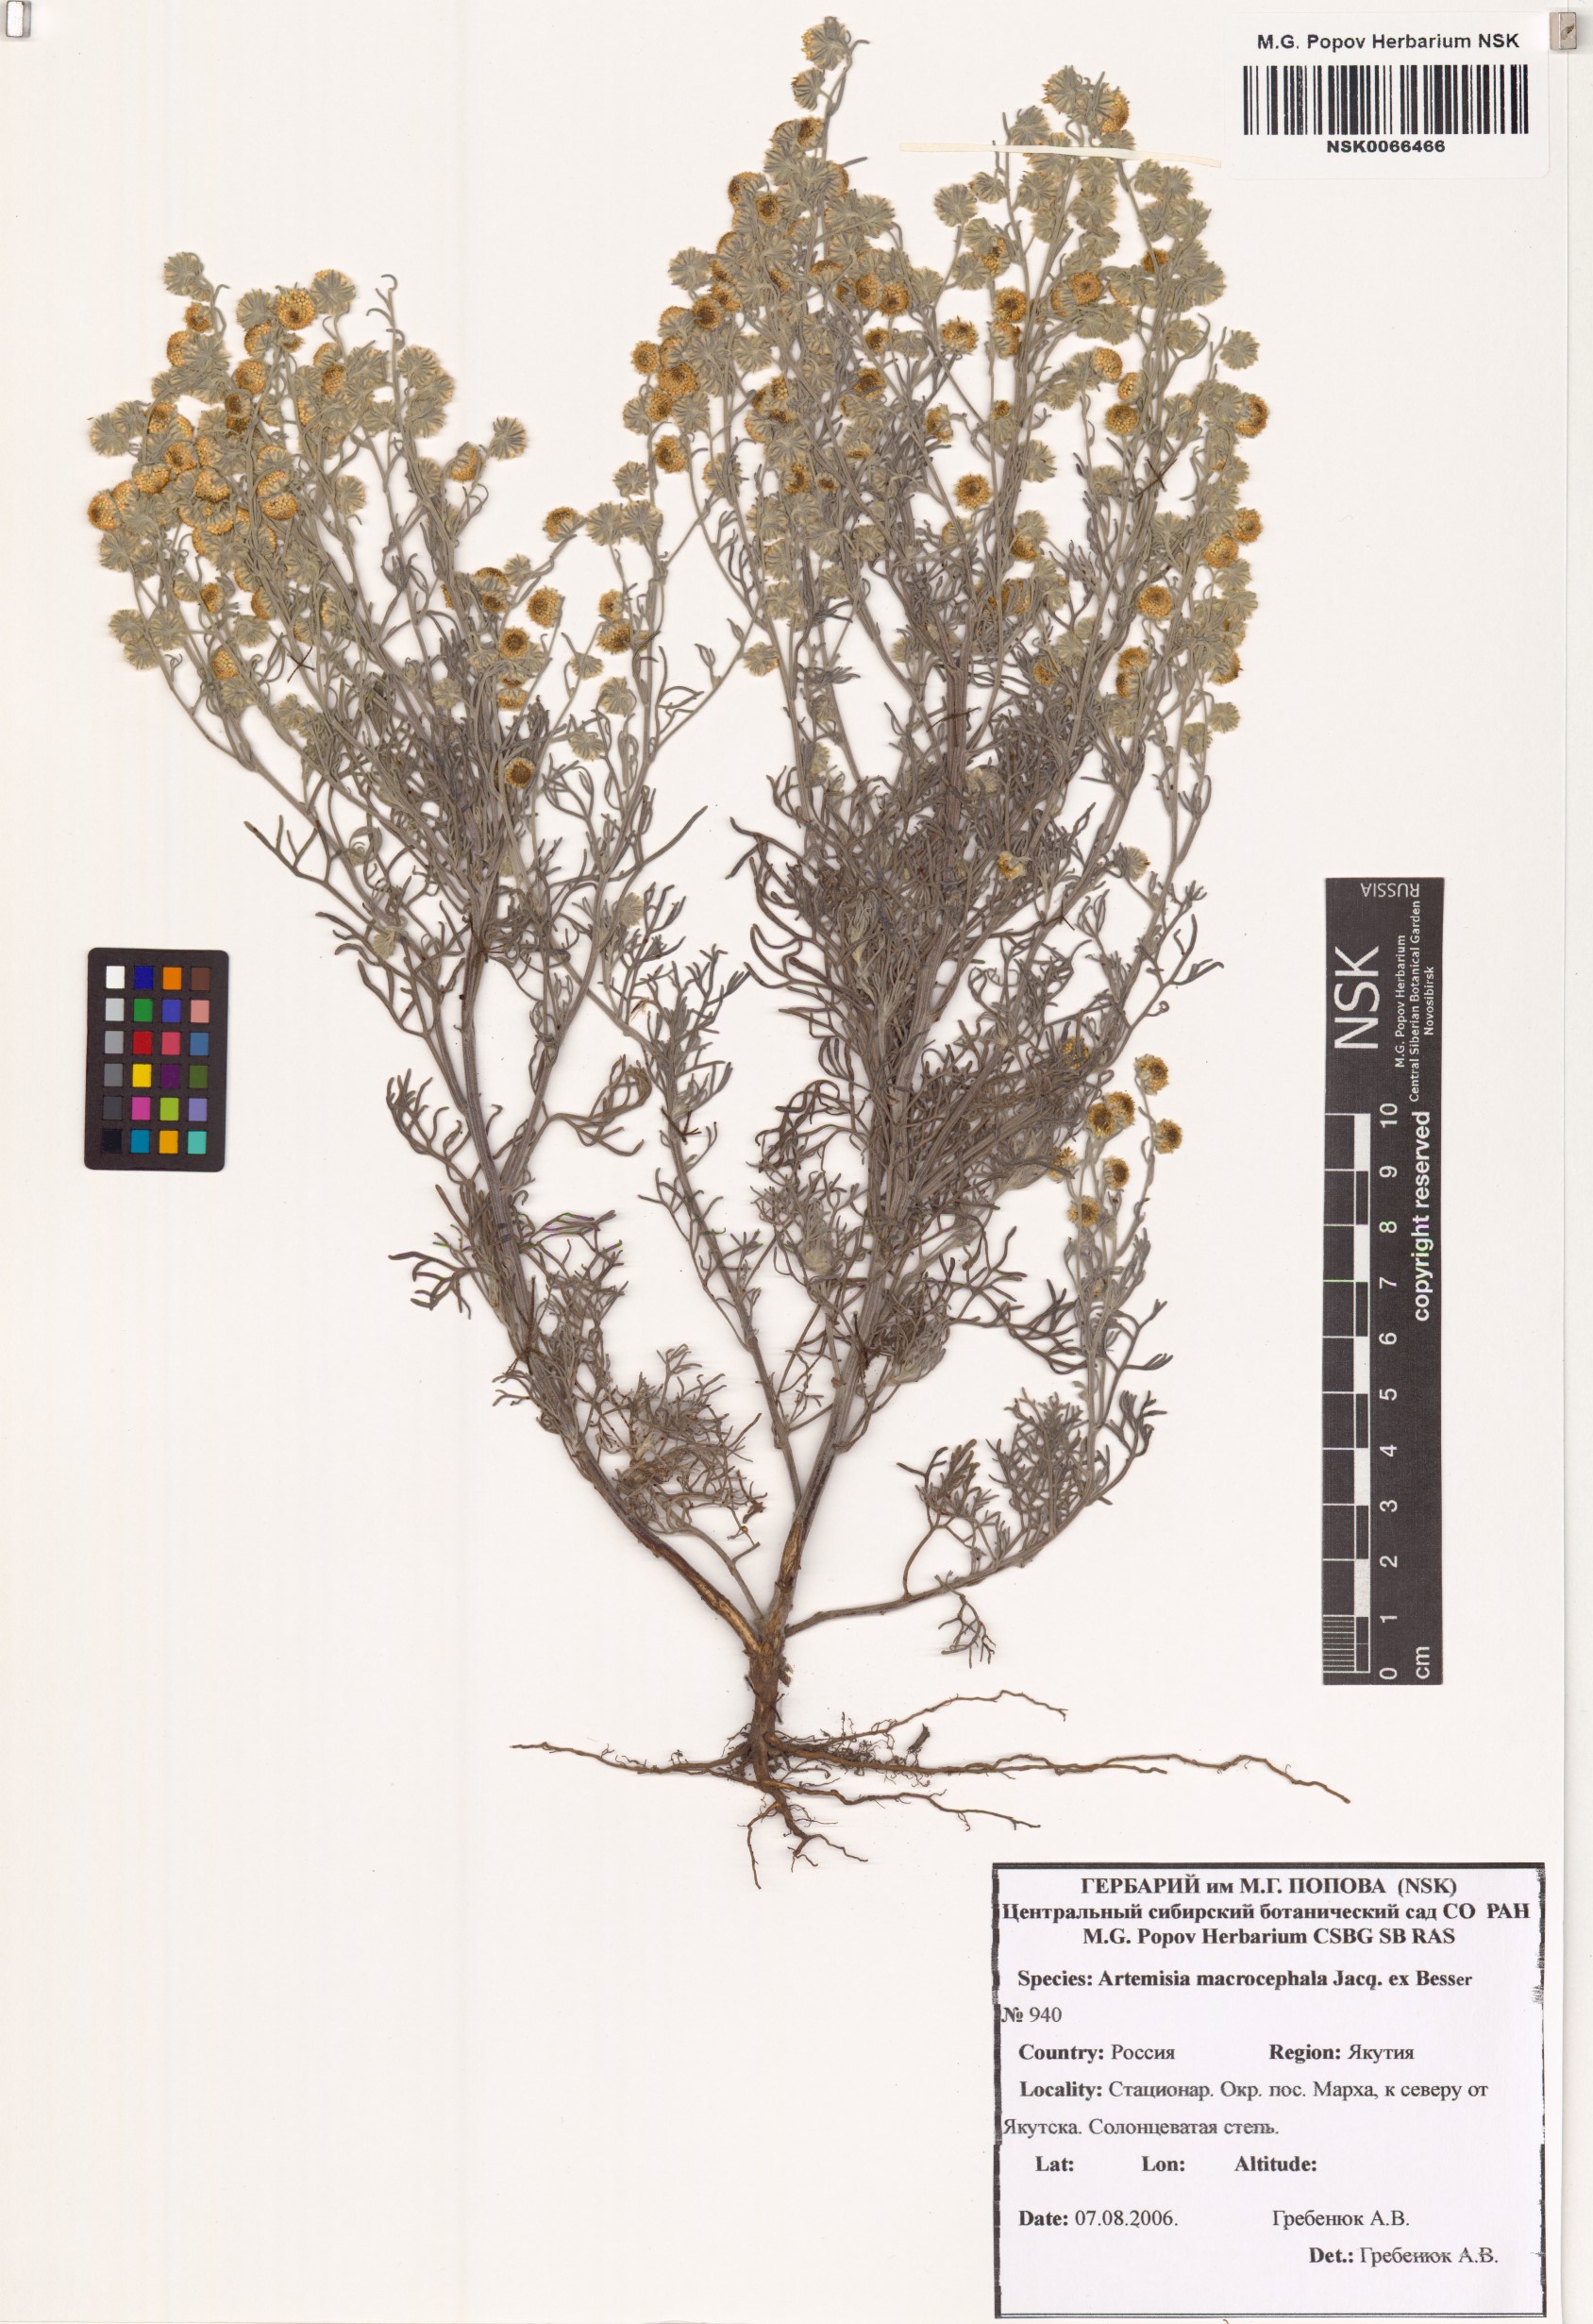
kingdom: Plantae
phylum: Tracheophyta
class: Magnoliopsida
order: Asterales
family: Asteraceae
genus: Artemisia
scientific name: Artemisia macrocephala
